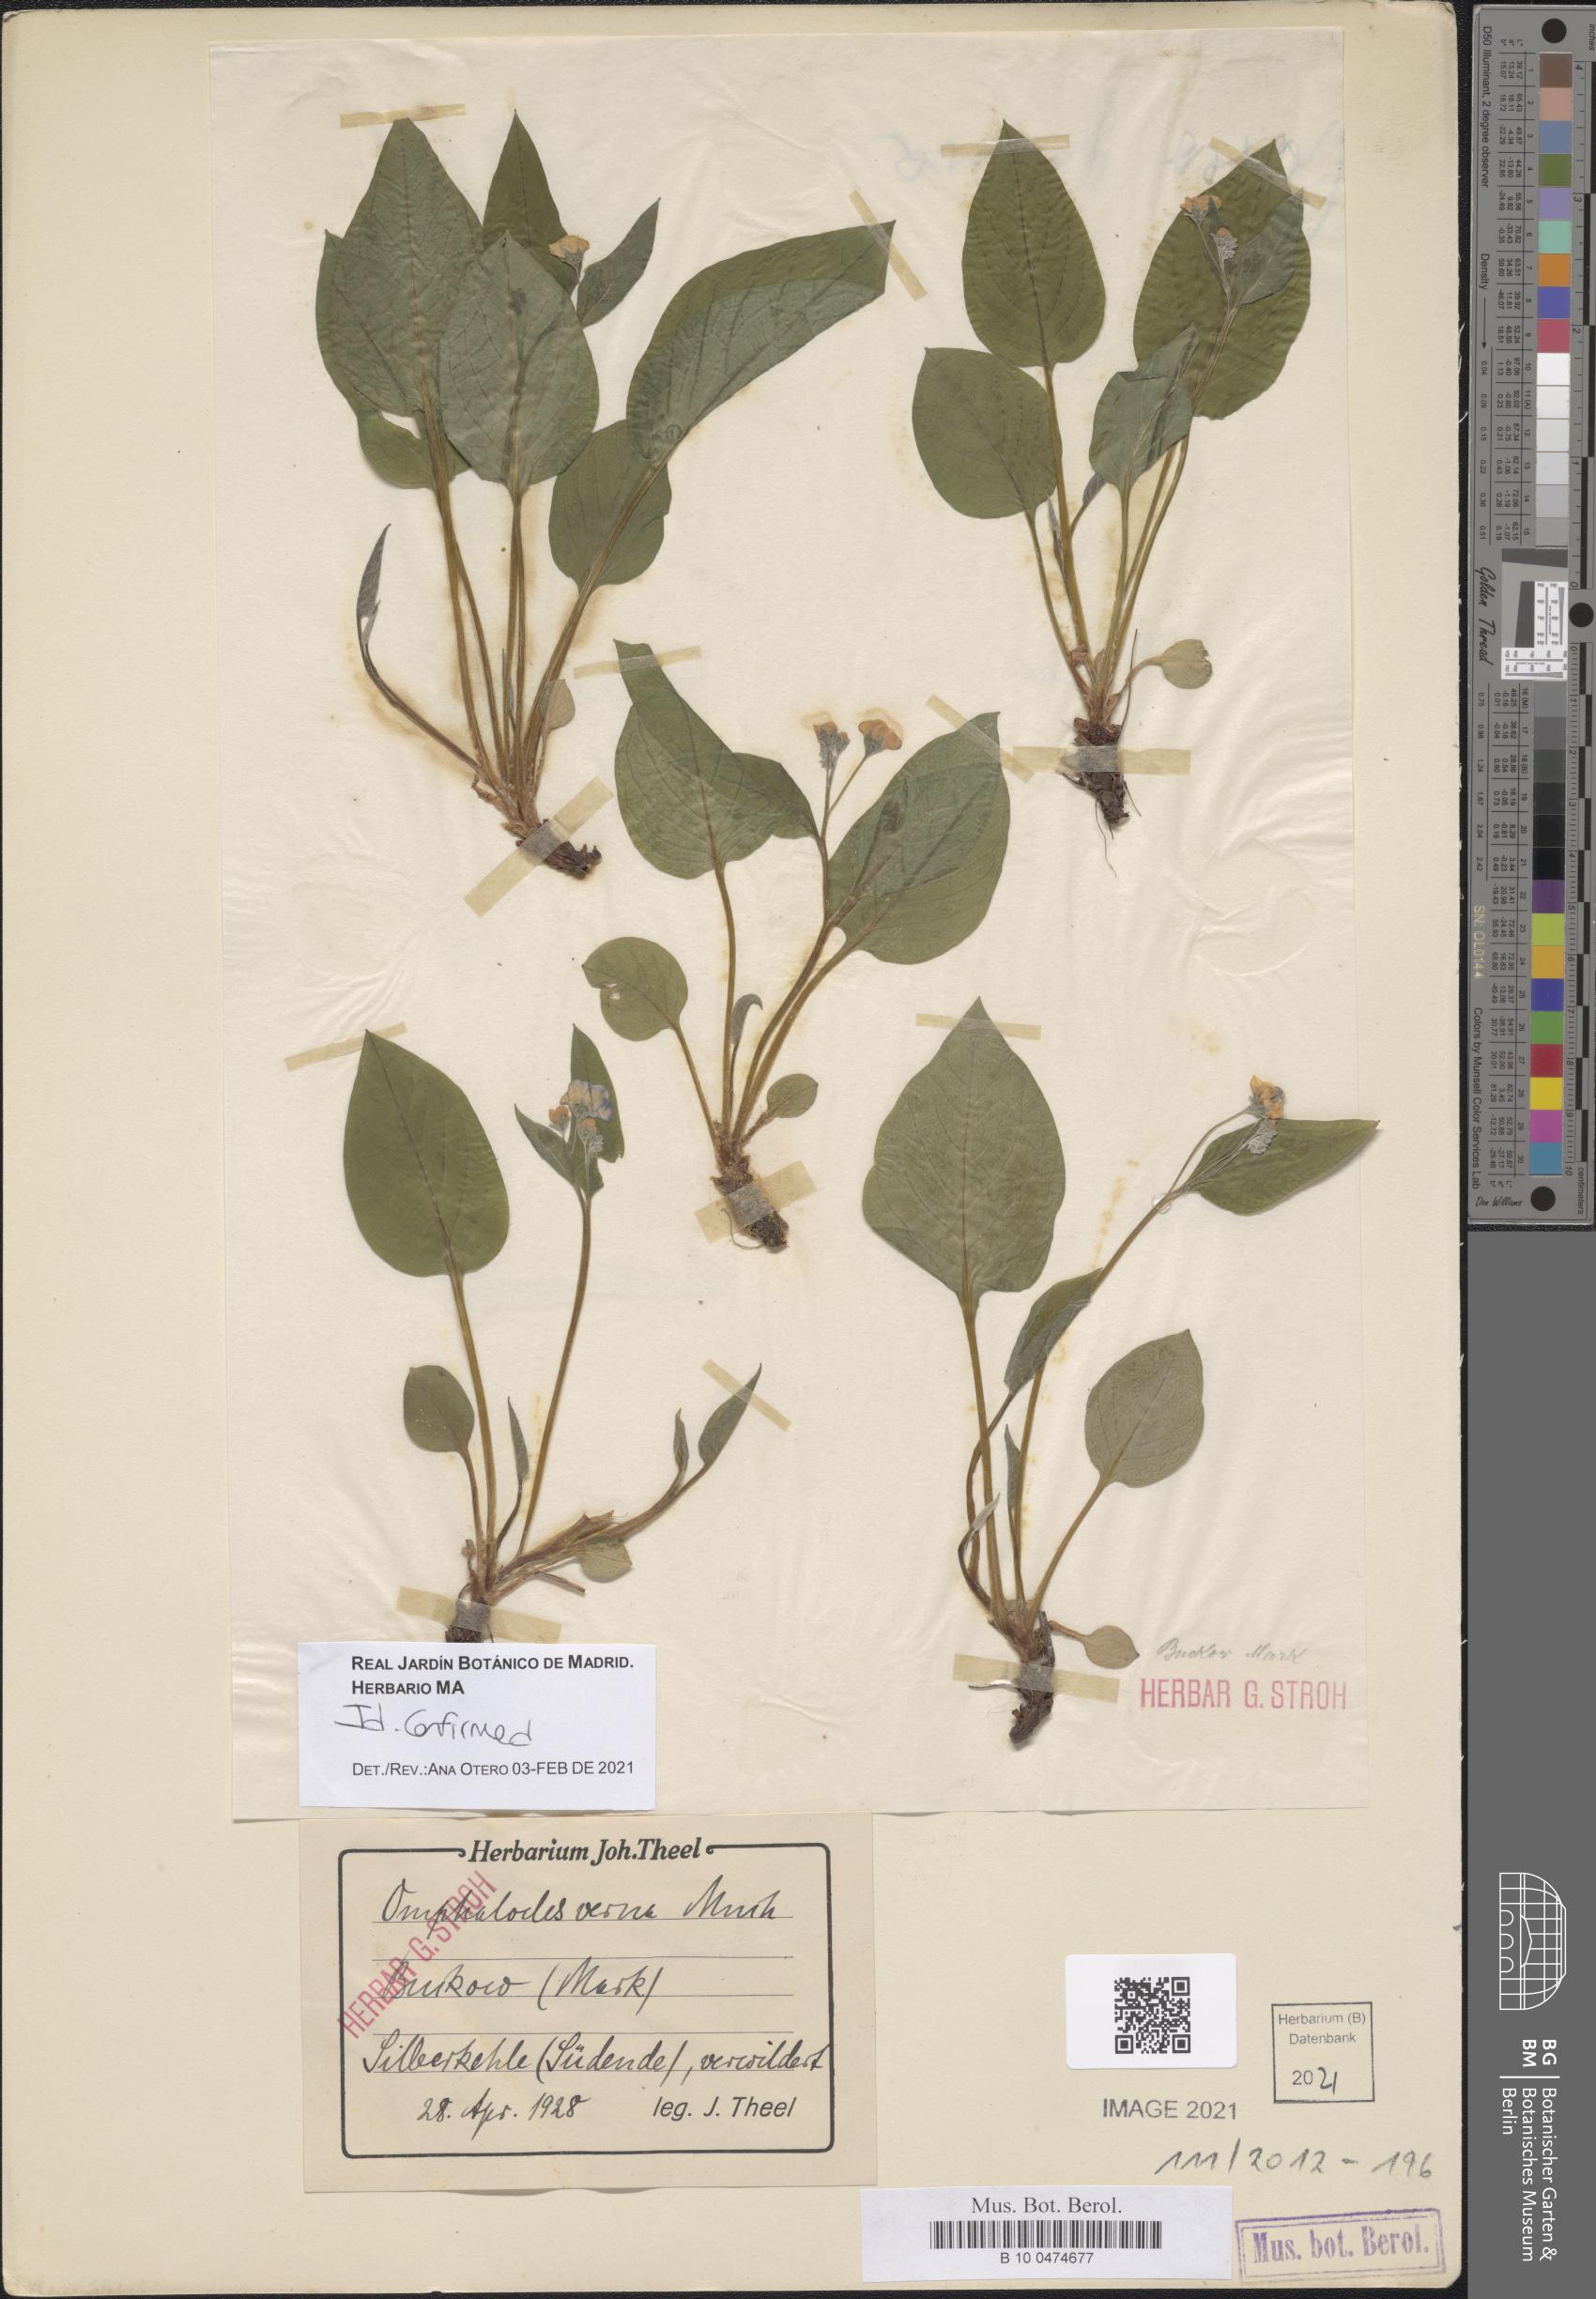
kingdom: Plantae
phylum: Tracheophyta
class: Magnoliopsida
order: Boraginales
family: Boraginaceae
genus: Omphalodes
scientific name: Omphalodes verna
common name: Blue-eyed-mary
